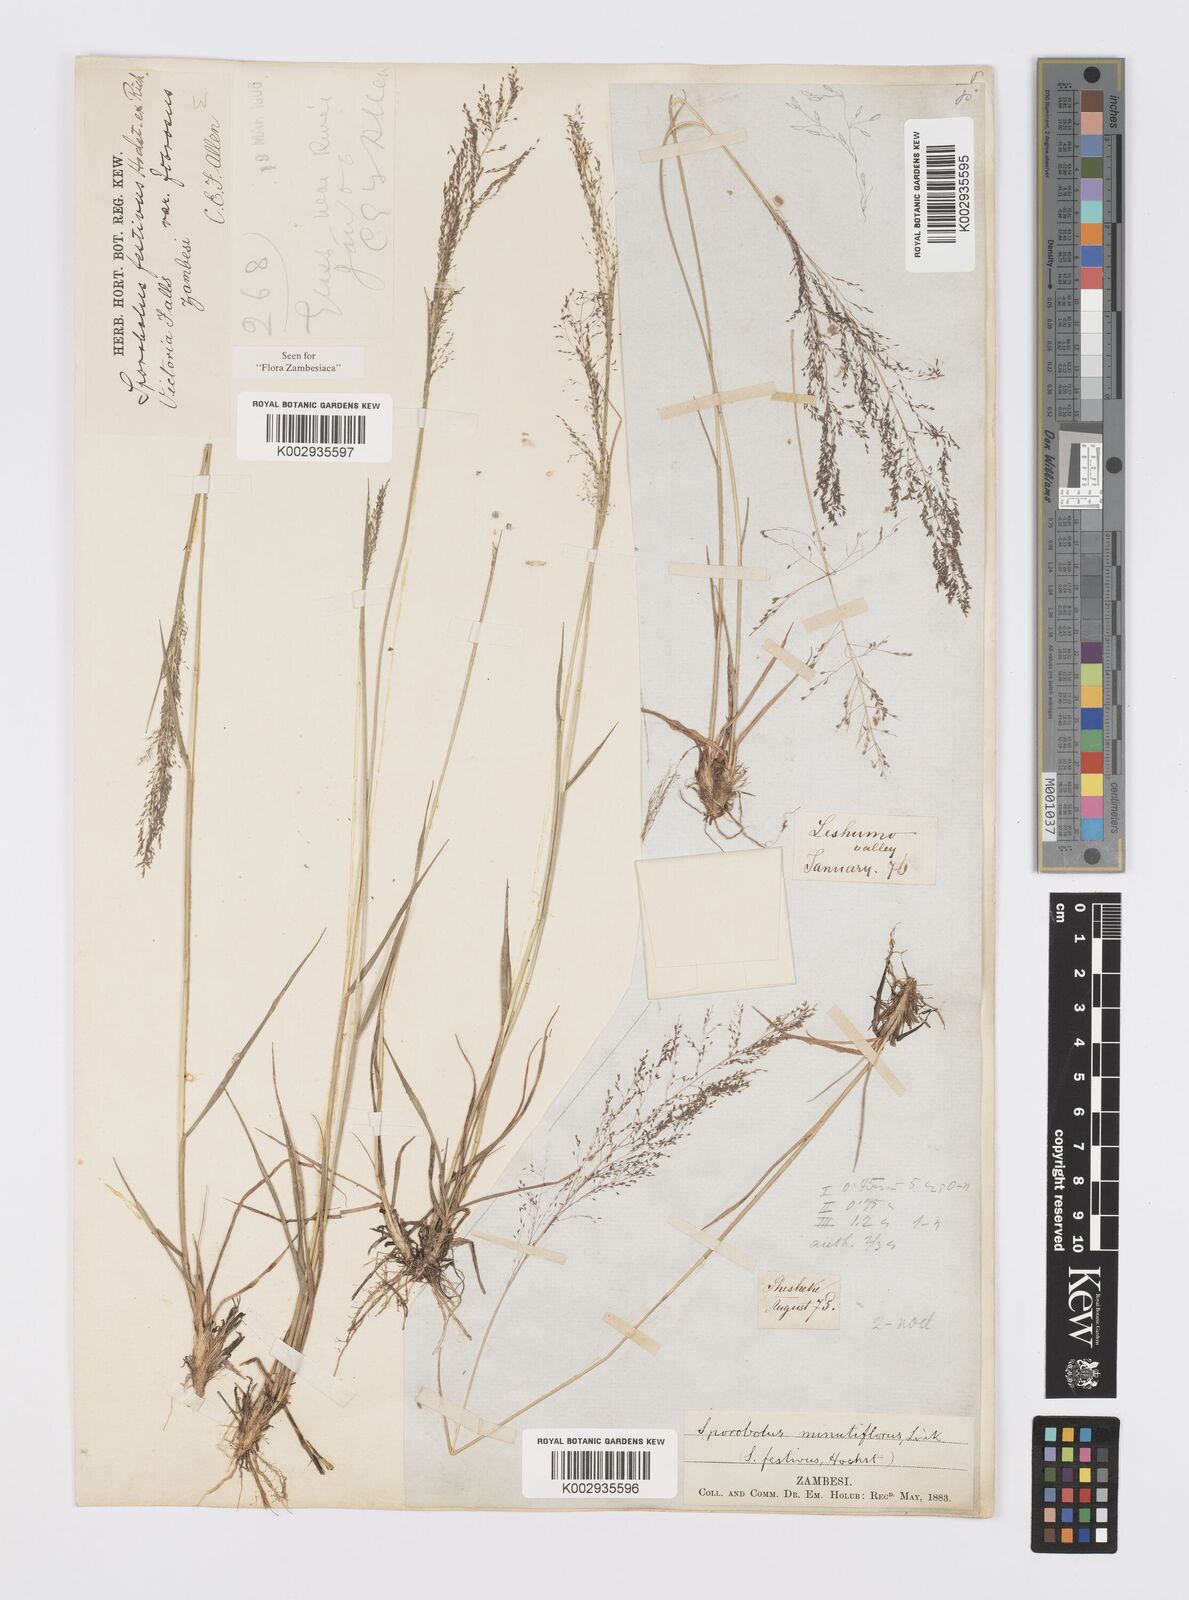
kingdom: Plantae
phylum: Tracheophyta
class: Liliopsida
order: Poales
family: Poaceae
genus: Sporobolus
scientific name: Sporobolus festivus
